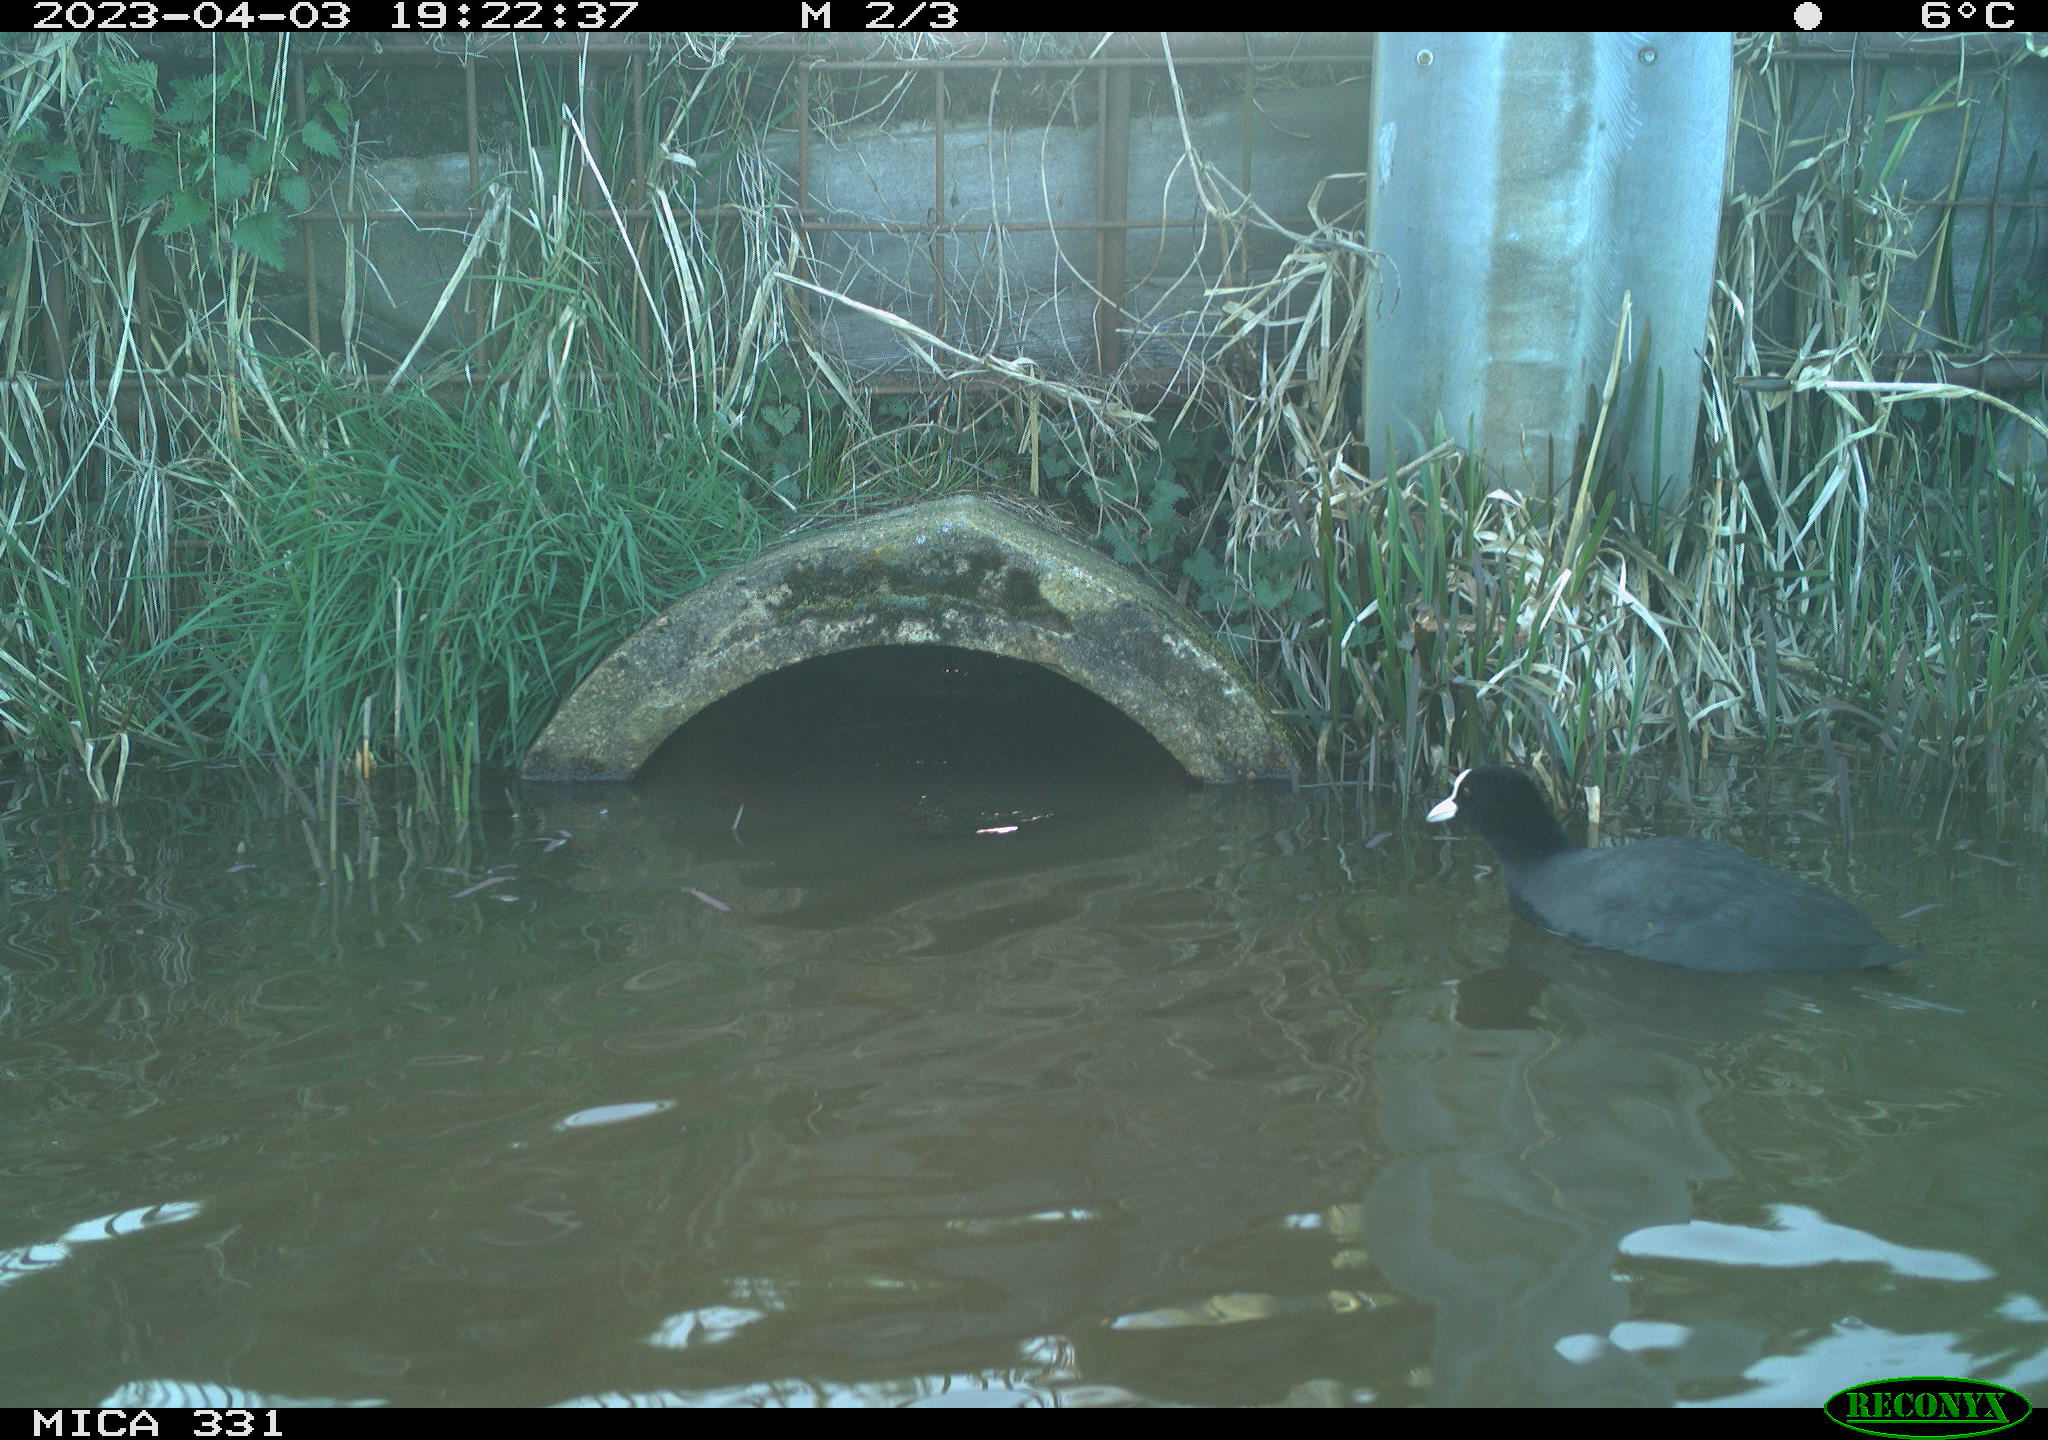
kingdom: Animalia
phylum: Chordata
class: Aves
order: Gruiformes
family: Rallidae
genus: Fulica
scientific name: Fulica atra
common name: Eurasian coot
